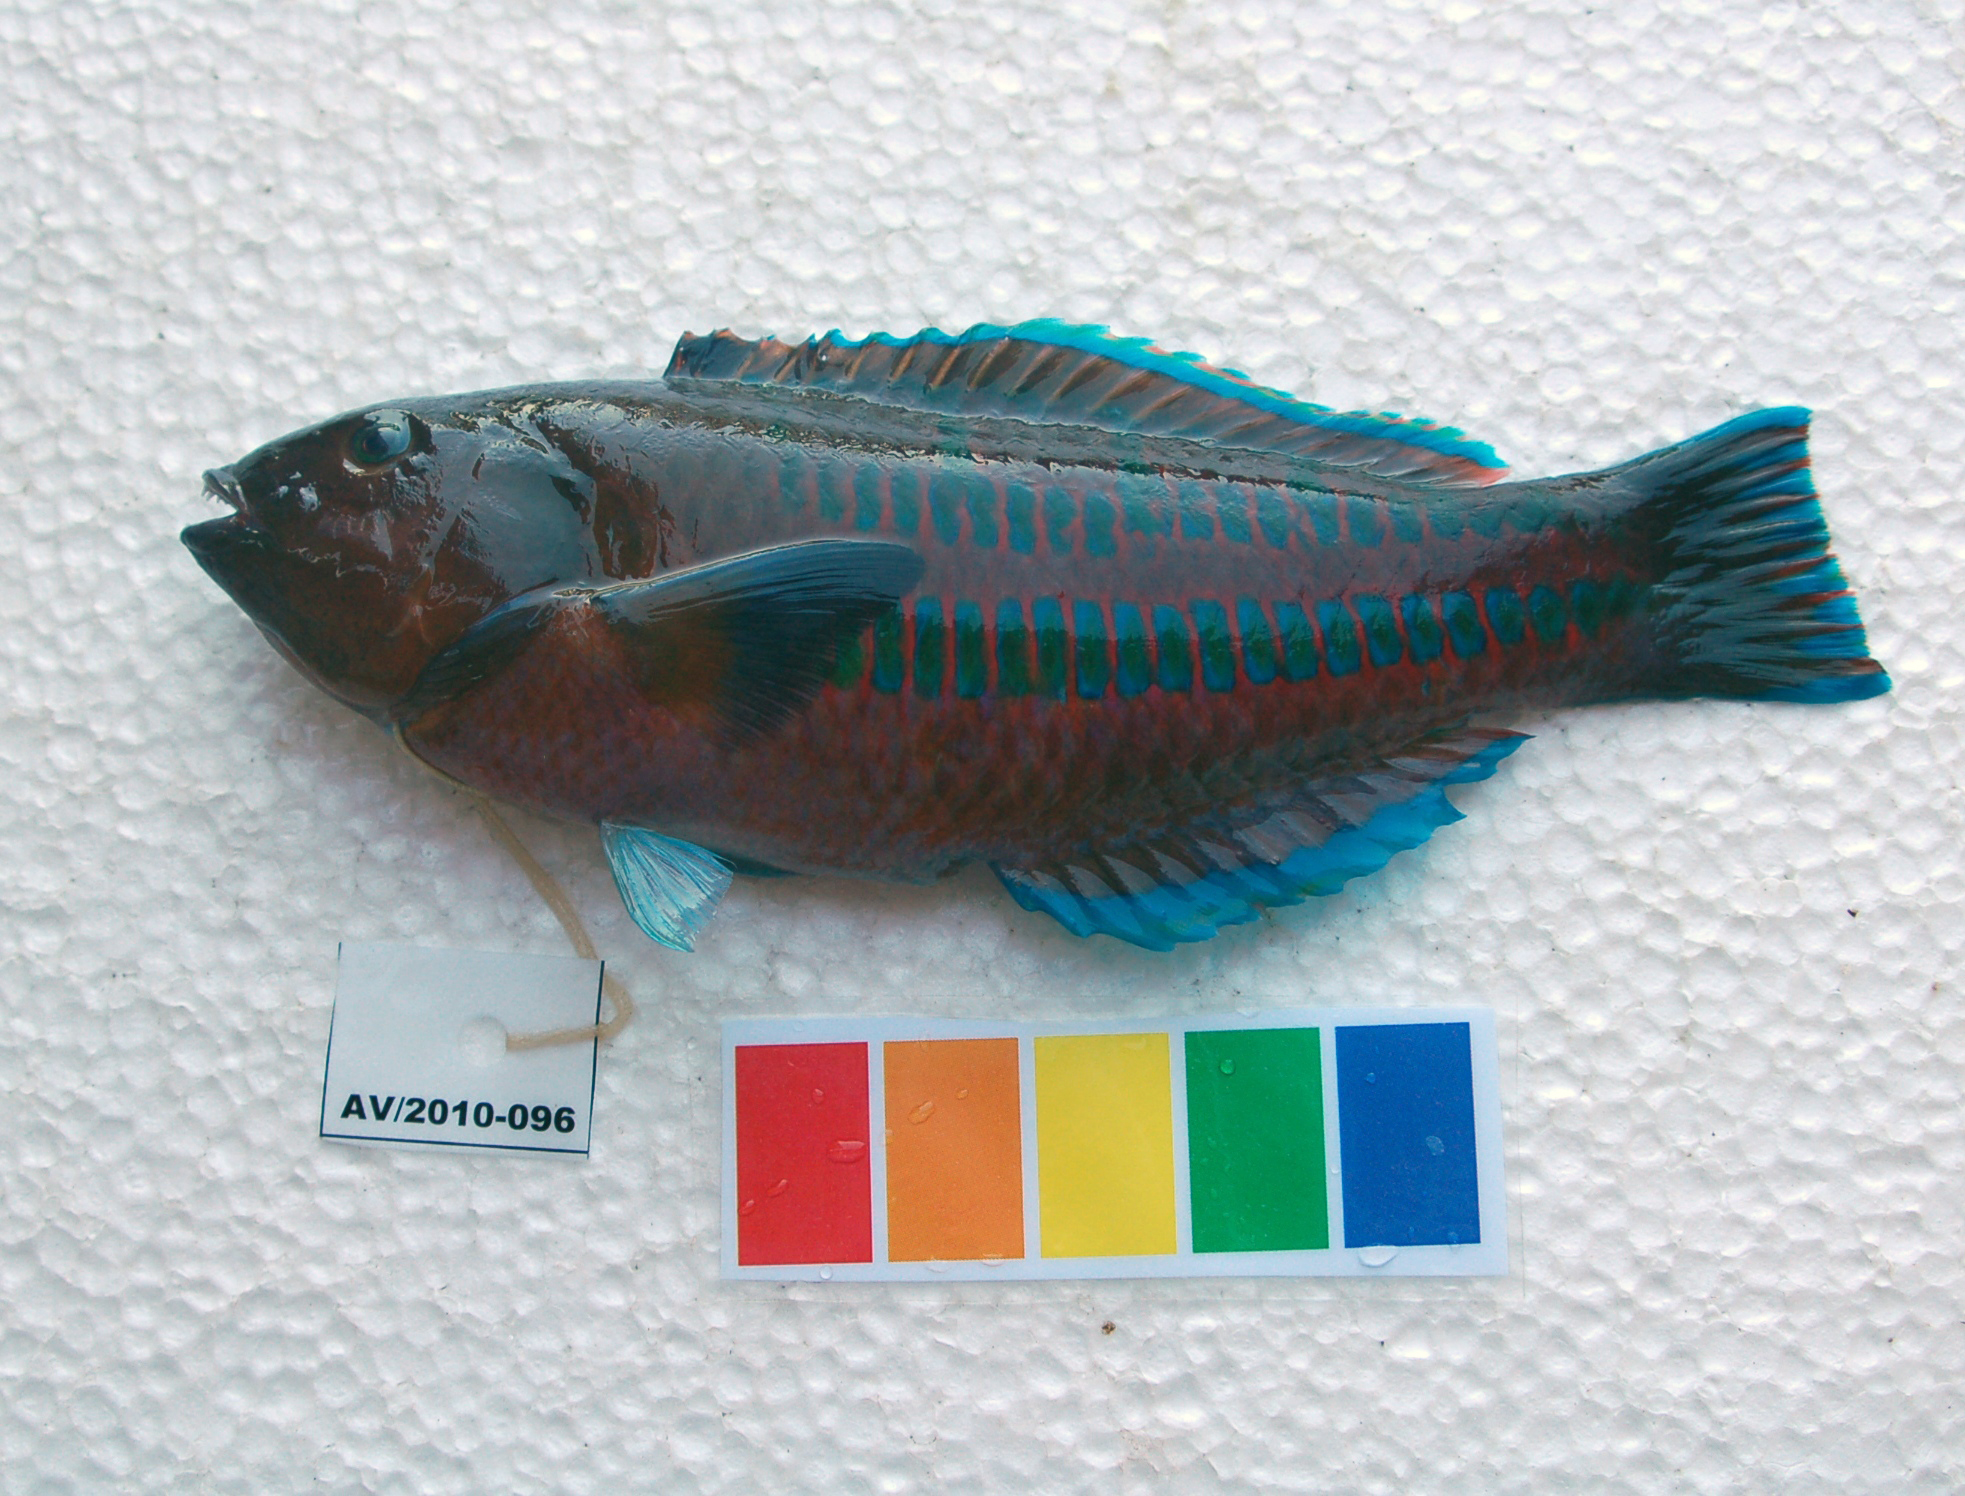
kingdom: Animalia
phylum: Chordata
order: Perciformes
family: Labridae
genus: Thalassoma
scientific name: Thalassoma trilobatum
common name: Christmas wrasse
